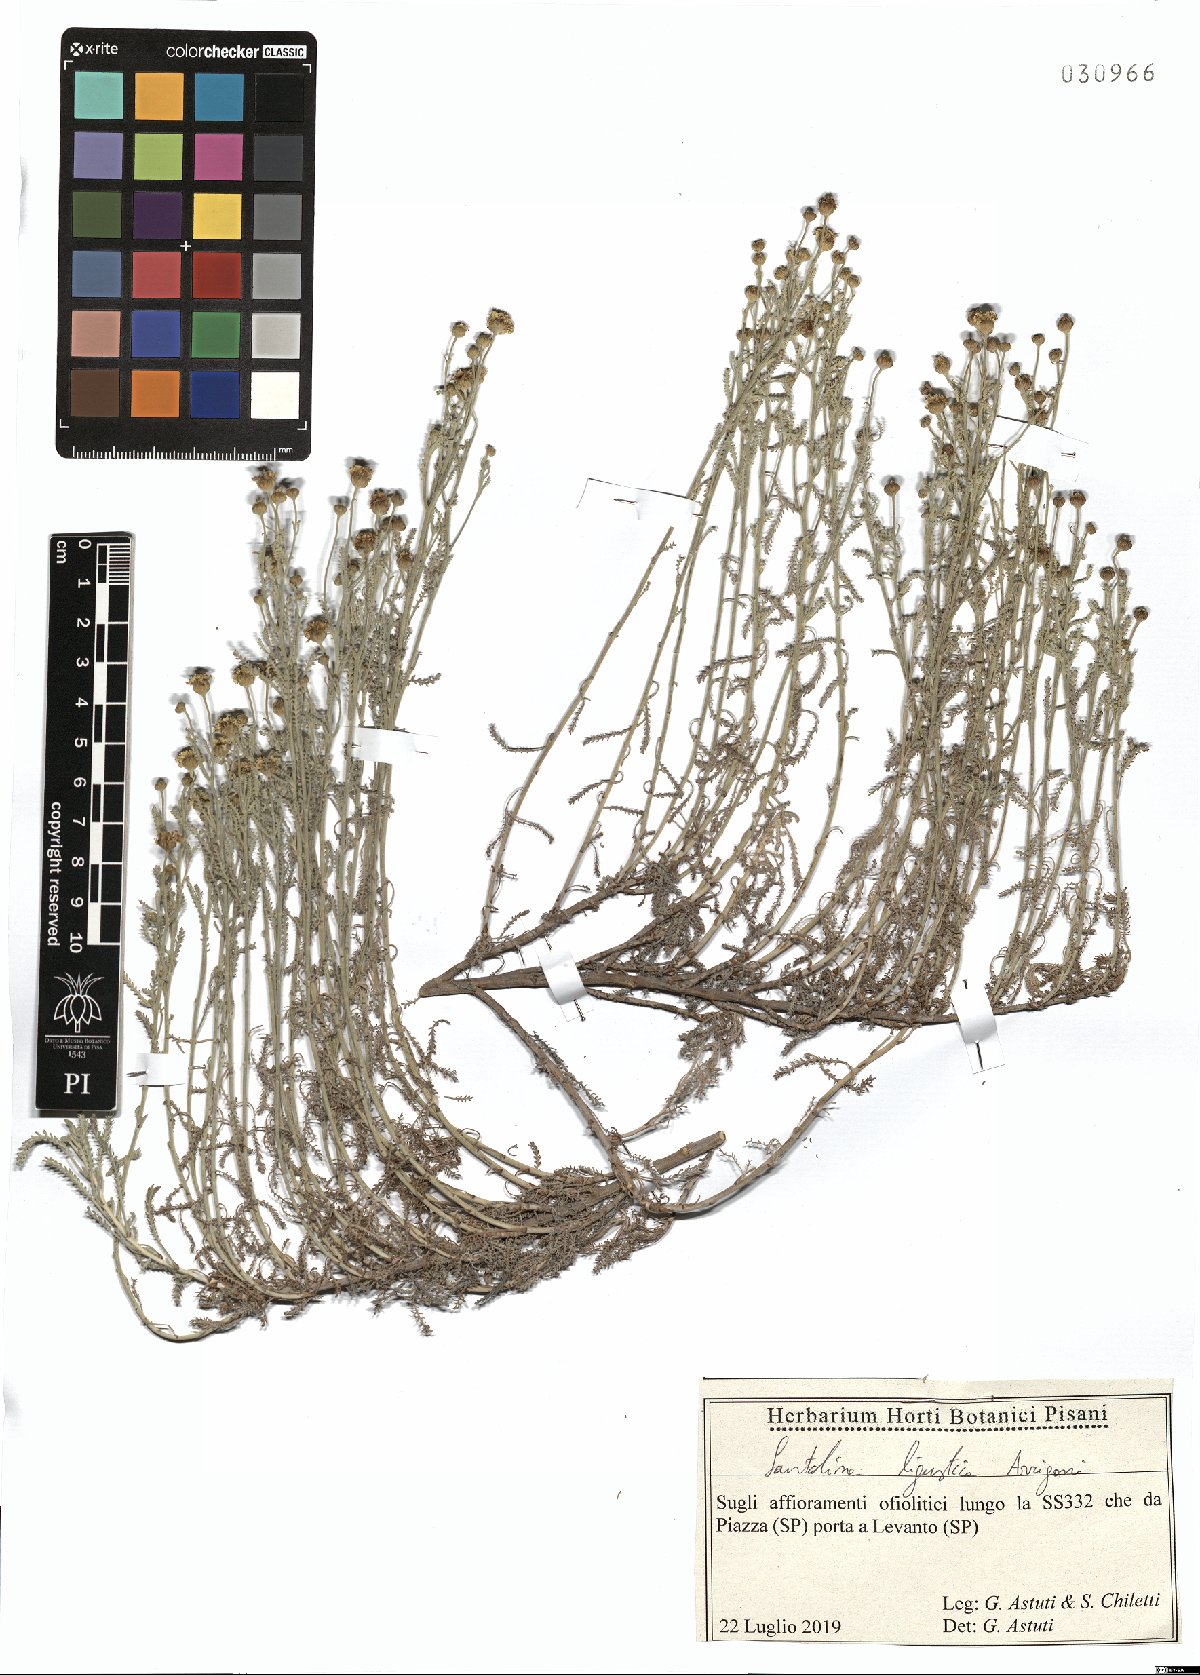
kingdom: Plantae
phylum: Tracheophyta
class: Magnoliopsida
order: Asterales
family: Asteraceae
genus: Santolina
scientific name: Santolina ligustica
